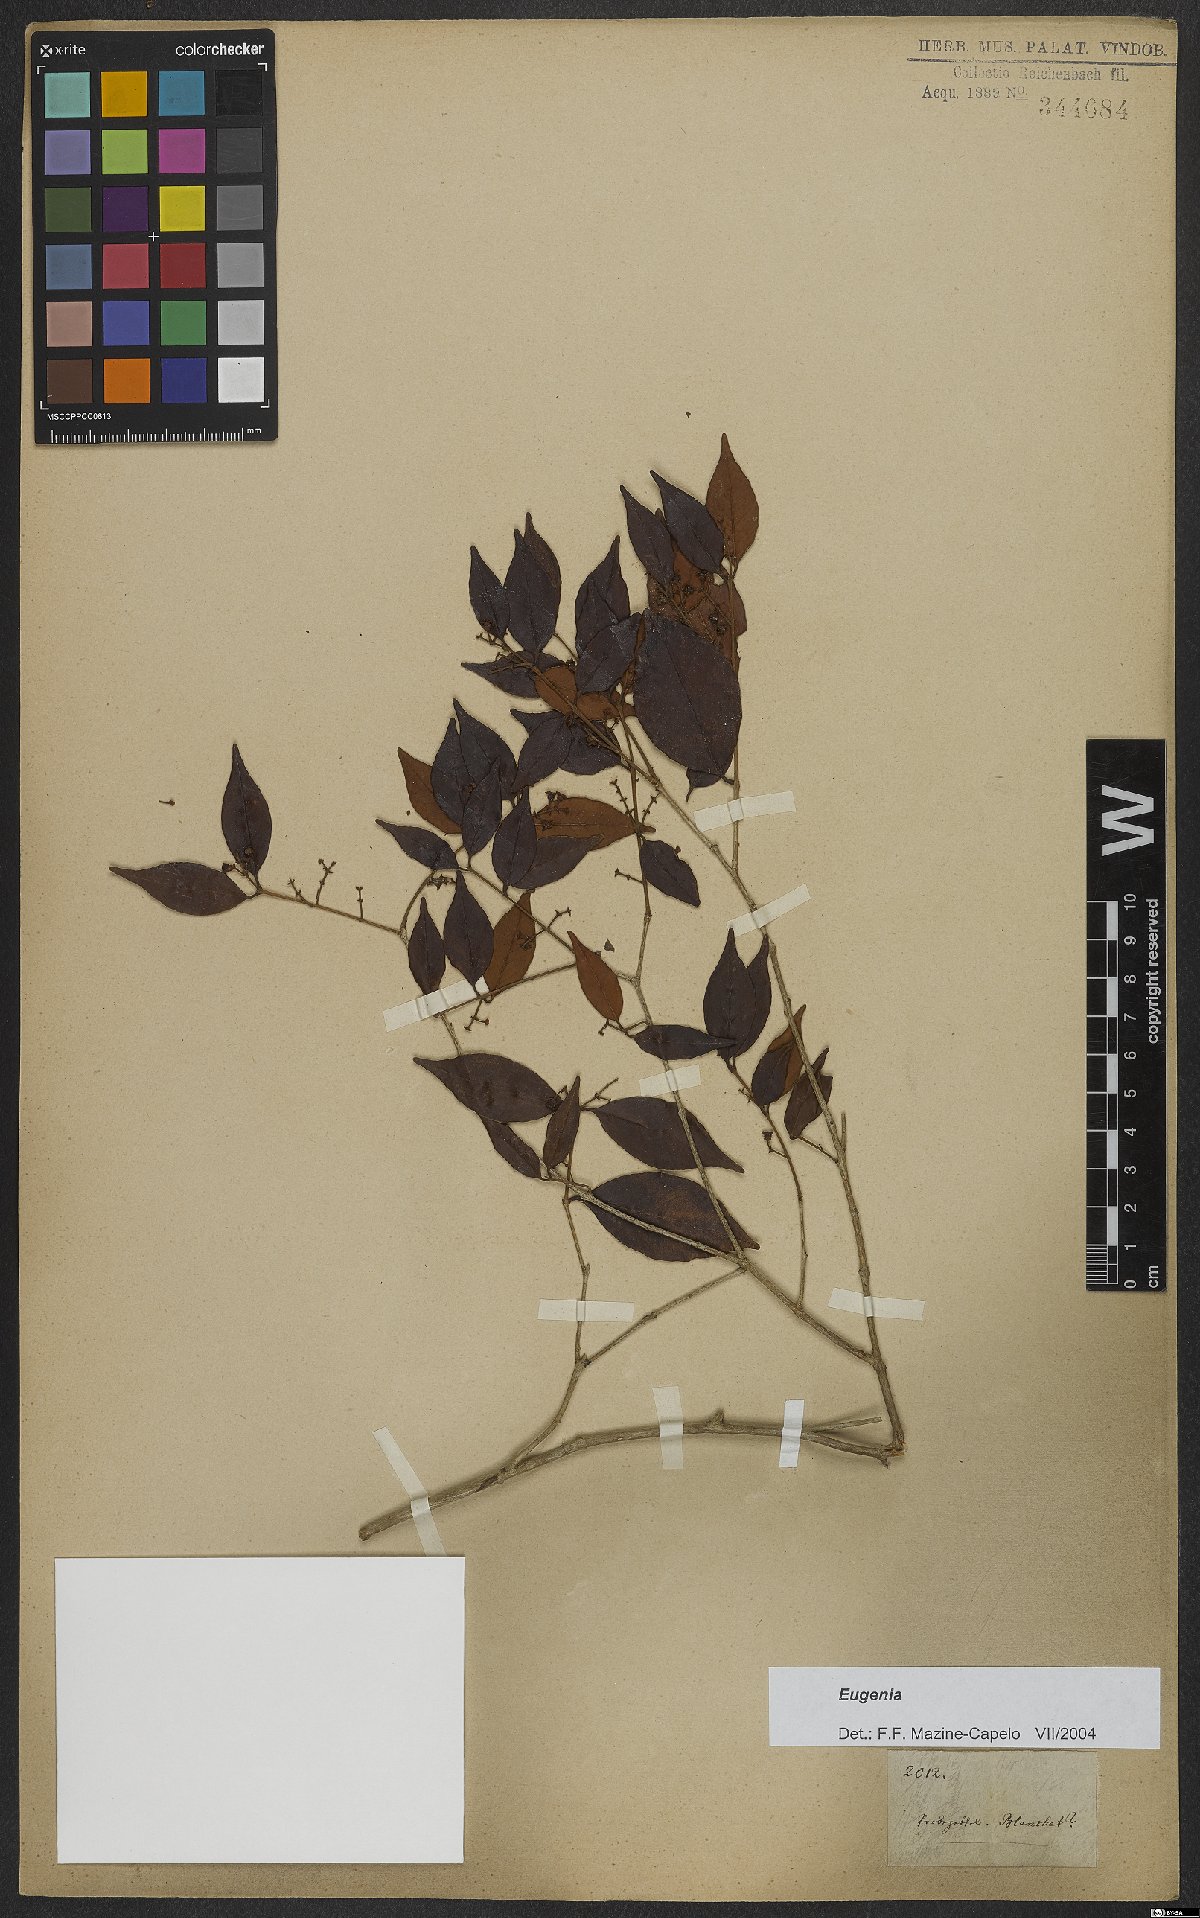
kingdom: Plantae
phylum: Tracheophyta
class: Magnoliopsida
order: Myrtales
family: Myrtaceae
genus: Eugenia
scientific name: Eugenia
